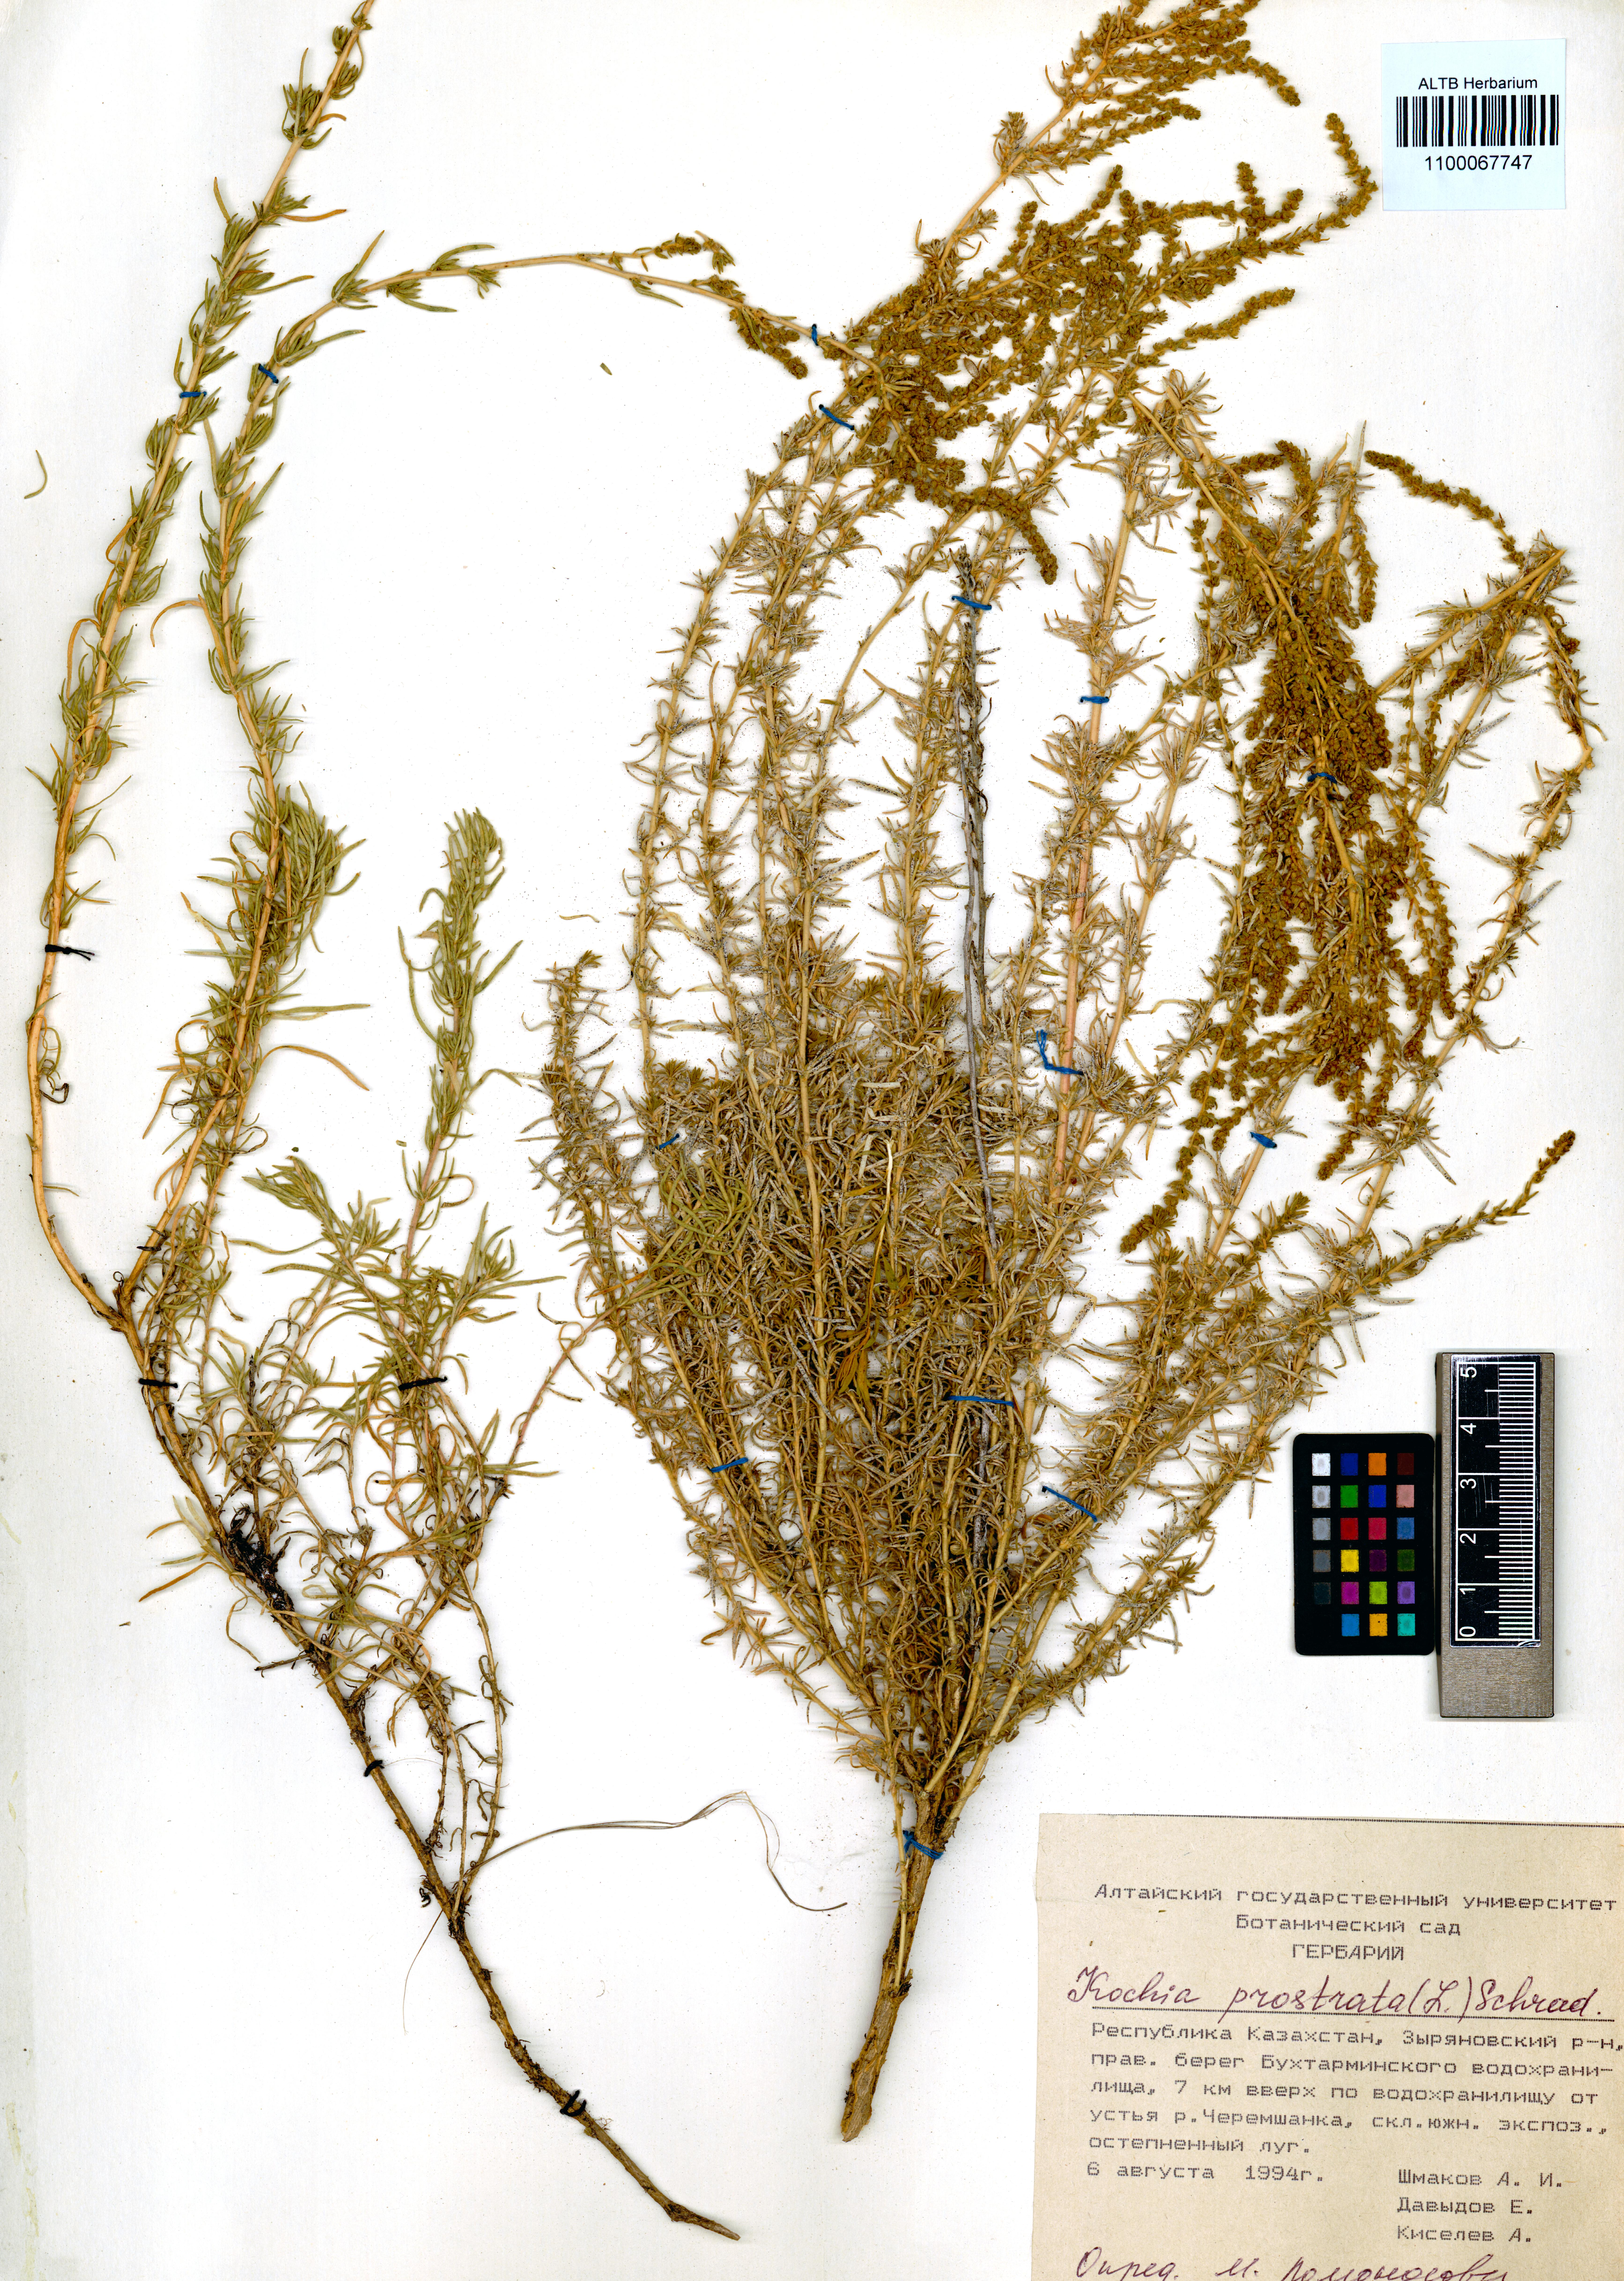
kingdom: Plantae
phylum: Tracheophyta
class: Magnoliopsida
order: Caryophyllales
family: Amaranthaceae
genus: Bassia
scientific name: Bassia prostrata
